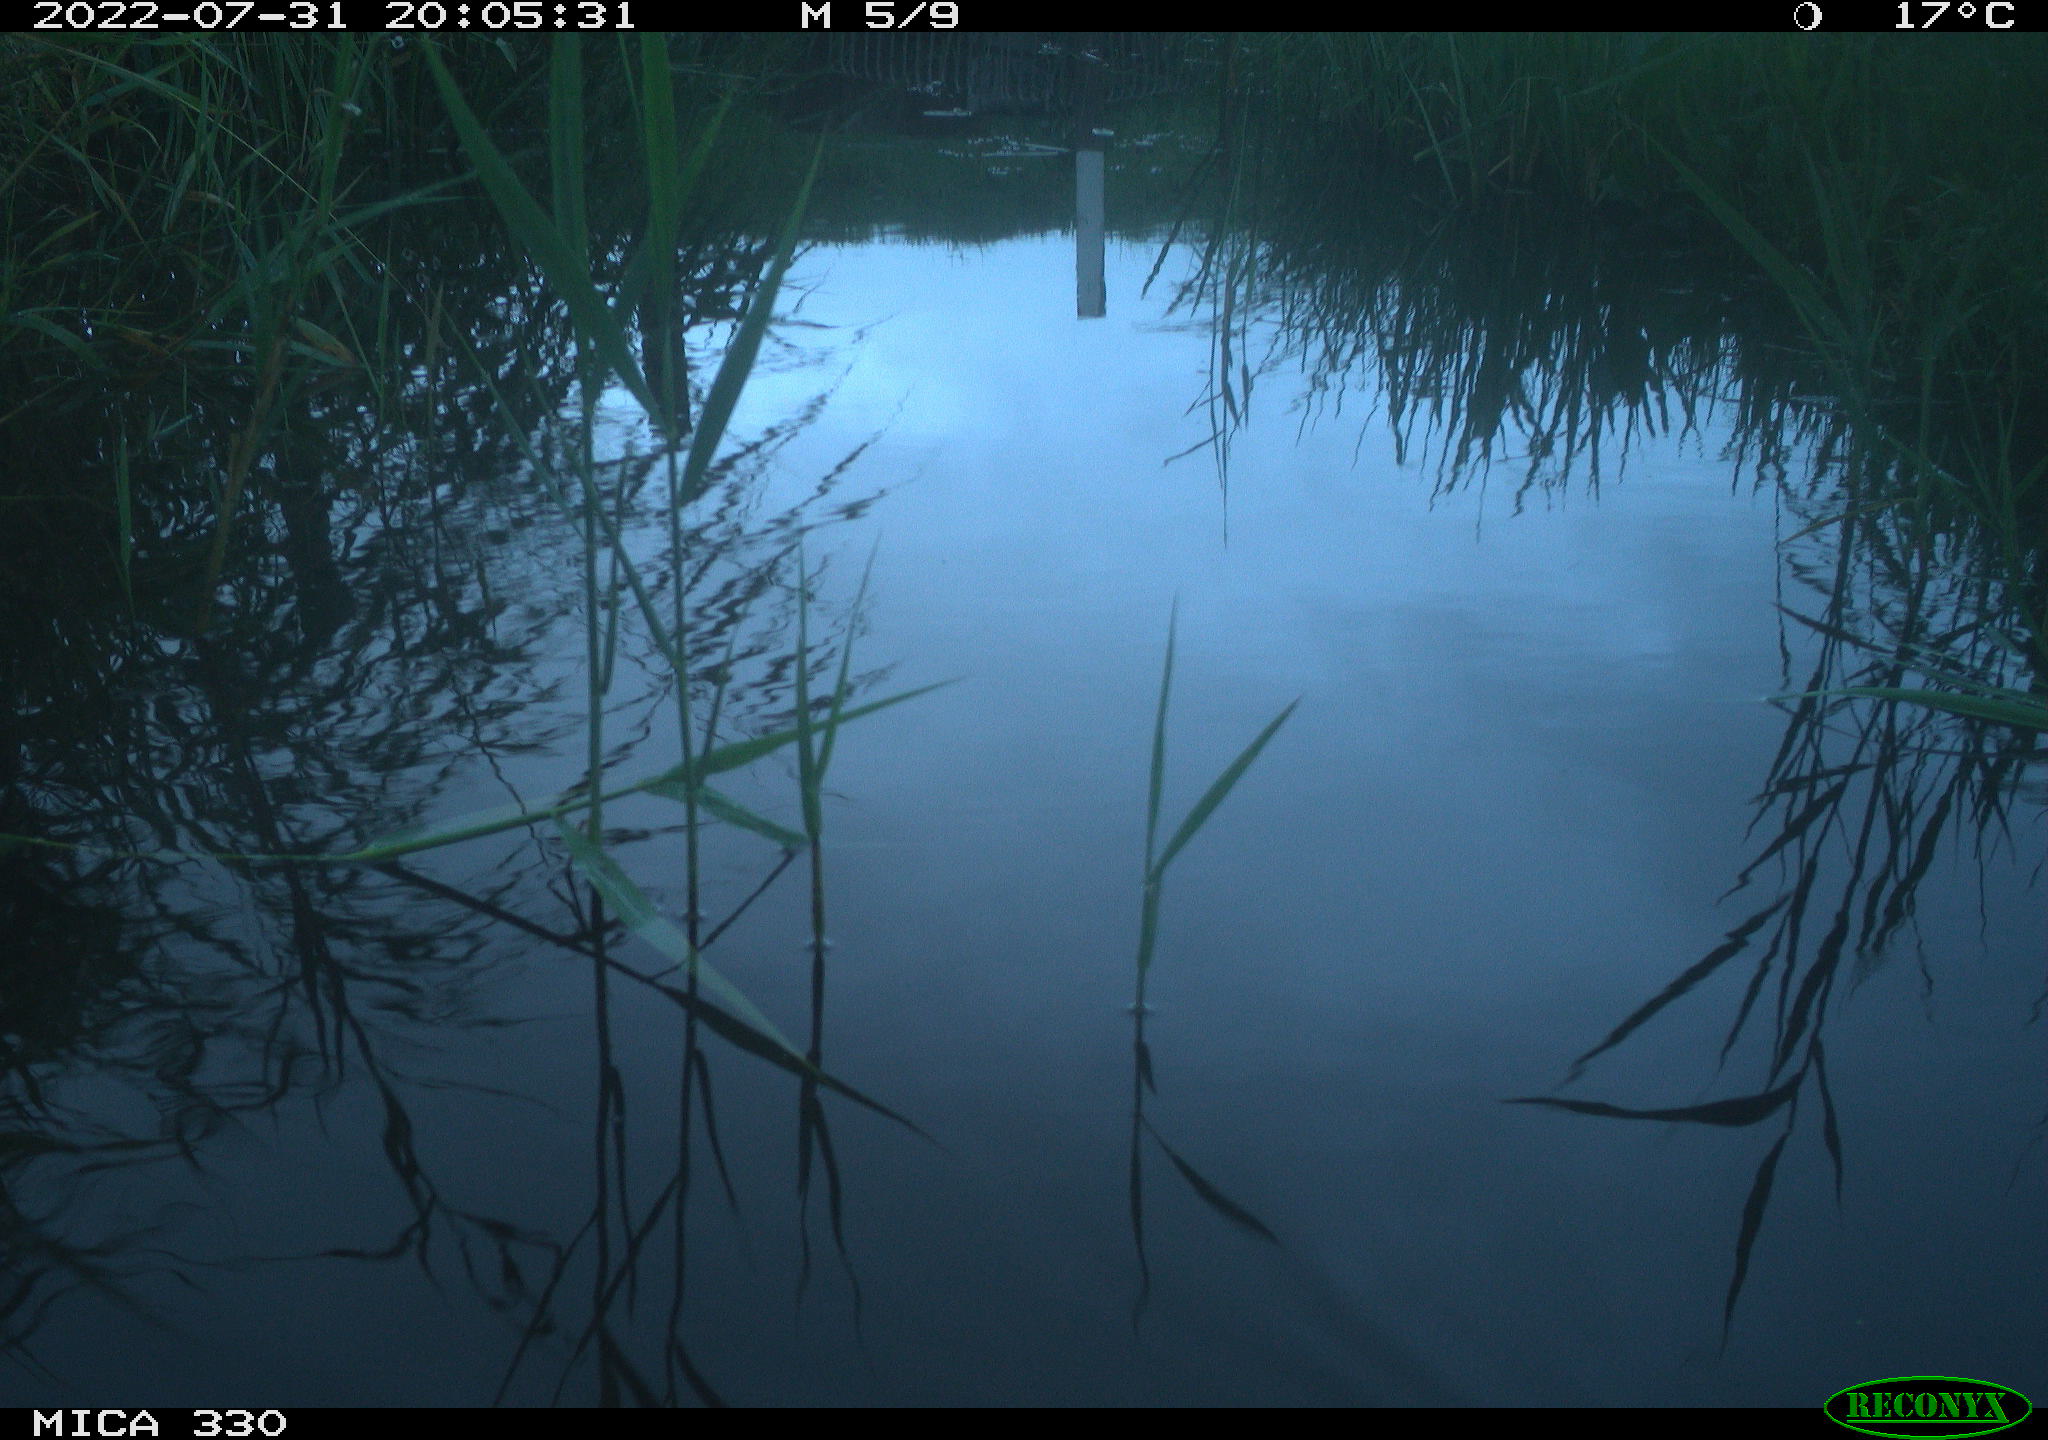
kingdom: Animalia
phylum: Chordata
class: Aves
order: Gruiformes
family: Rallidae
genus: Gallinula
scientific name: Gallinula chloropus
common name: Common moorhen
